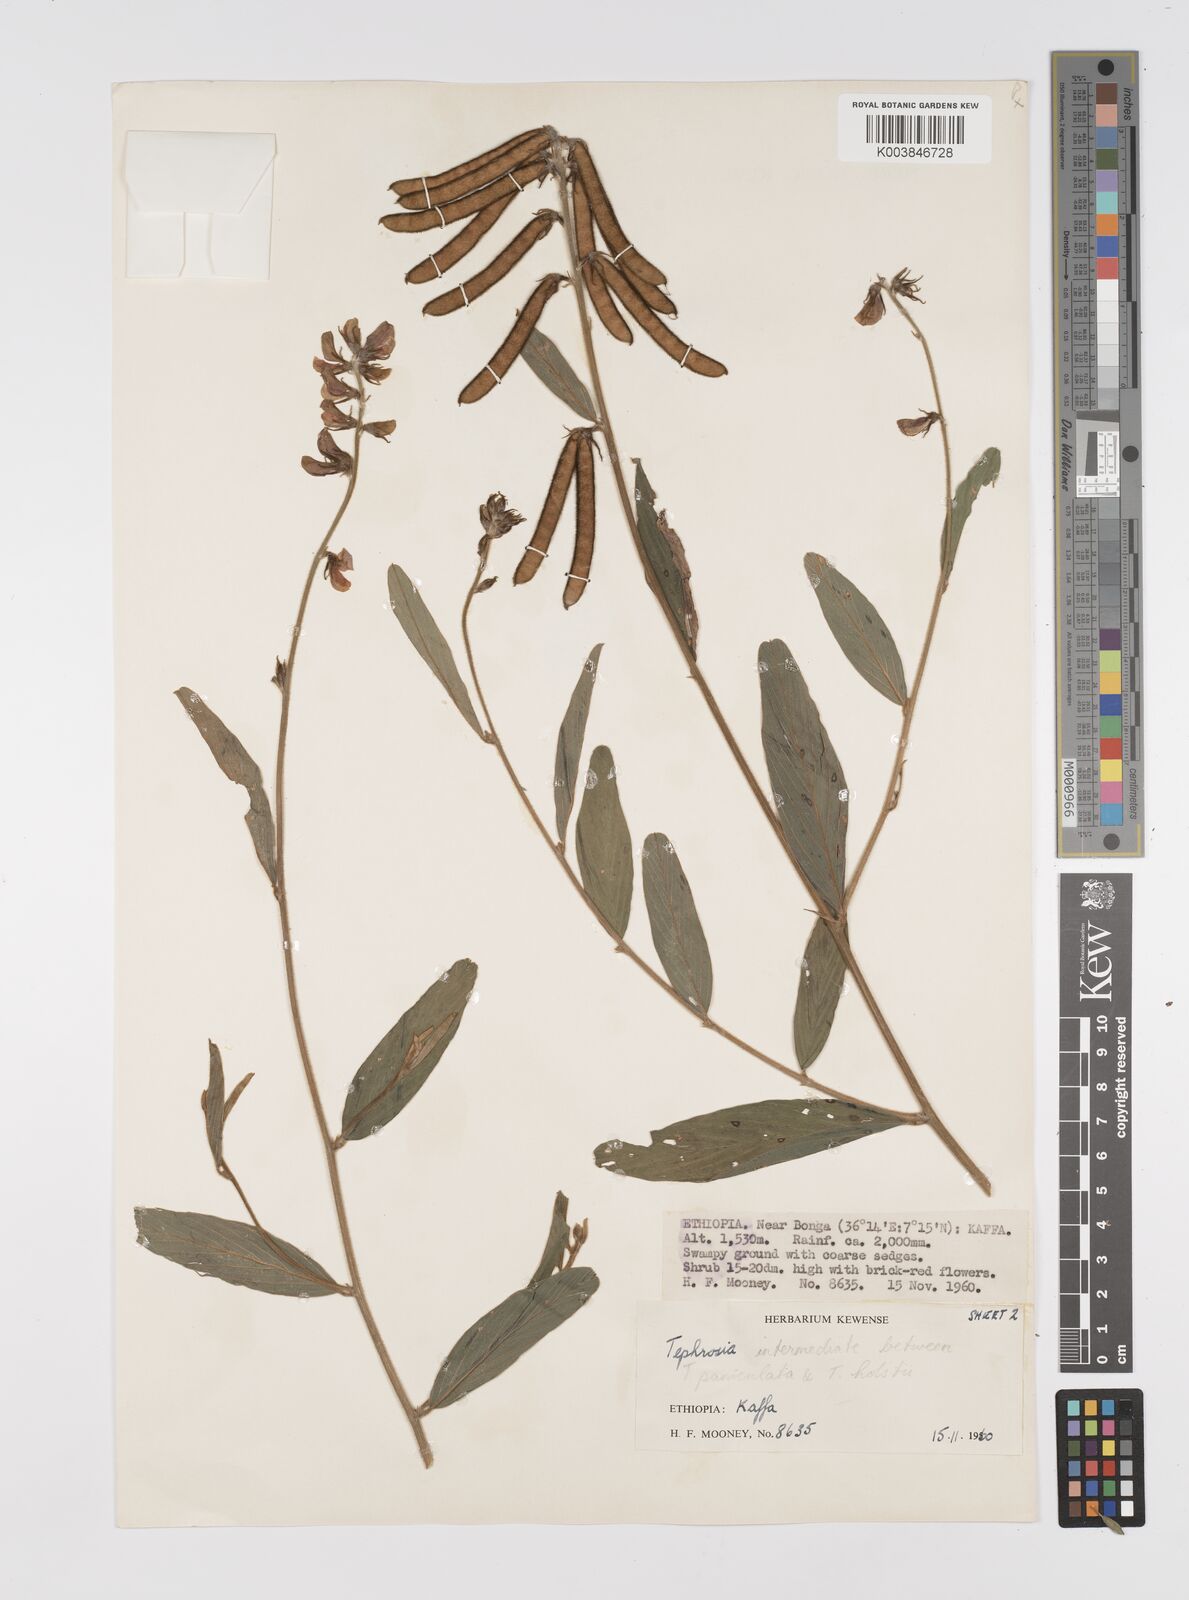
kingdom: Plantae
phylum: Tracheophyta
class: Magnoliopsida
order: Fabales
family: Fabaceae
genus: Tephrosia
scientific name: Tephrosia holstii
